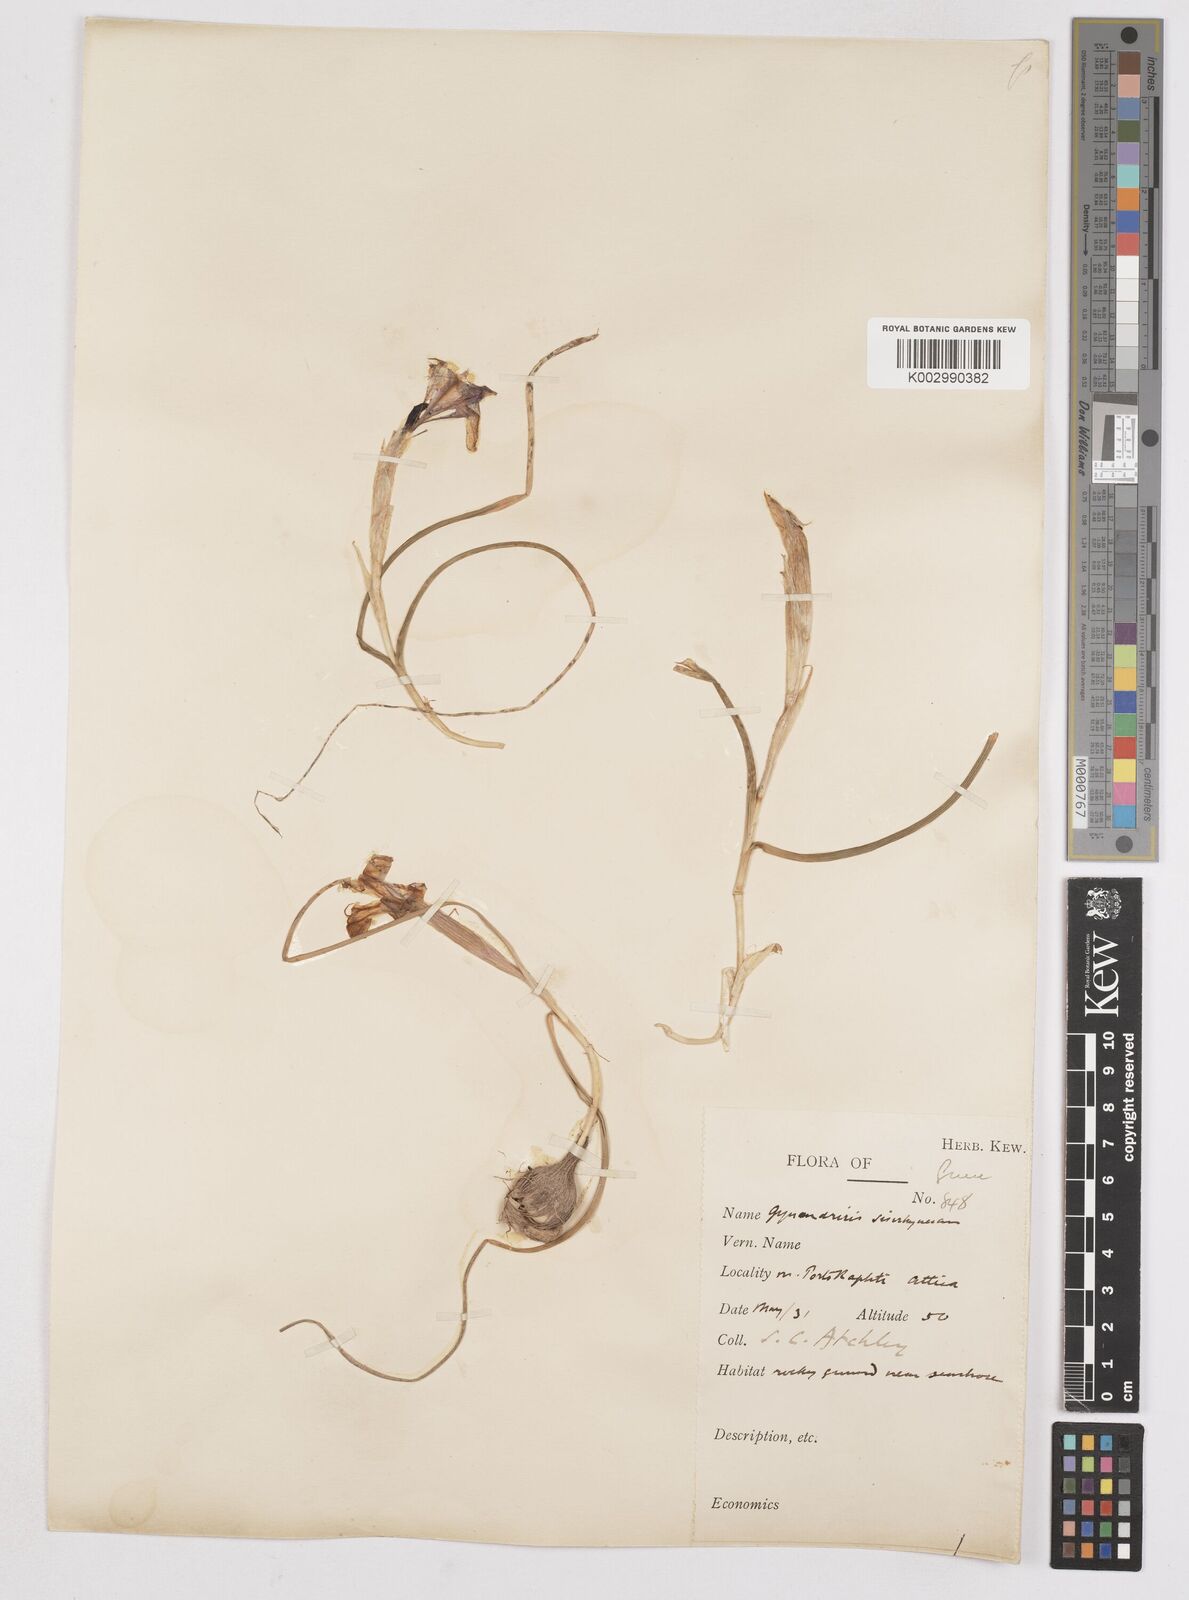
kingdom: Plantae
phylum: Tracheophyta
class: Liliopsida
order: Asparagales
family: Iridaceae
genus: Moraea
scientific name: Moraea sisyrinchium
